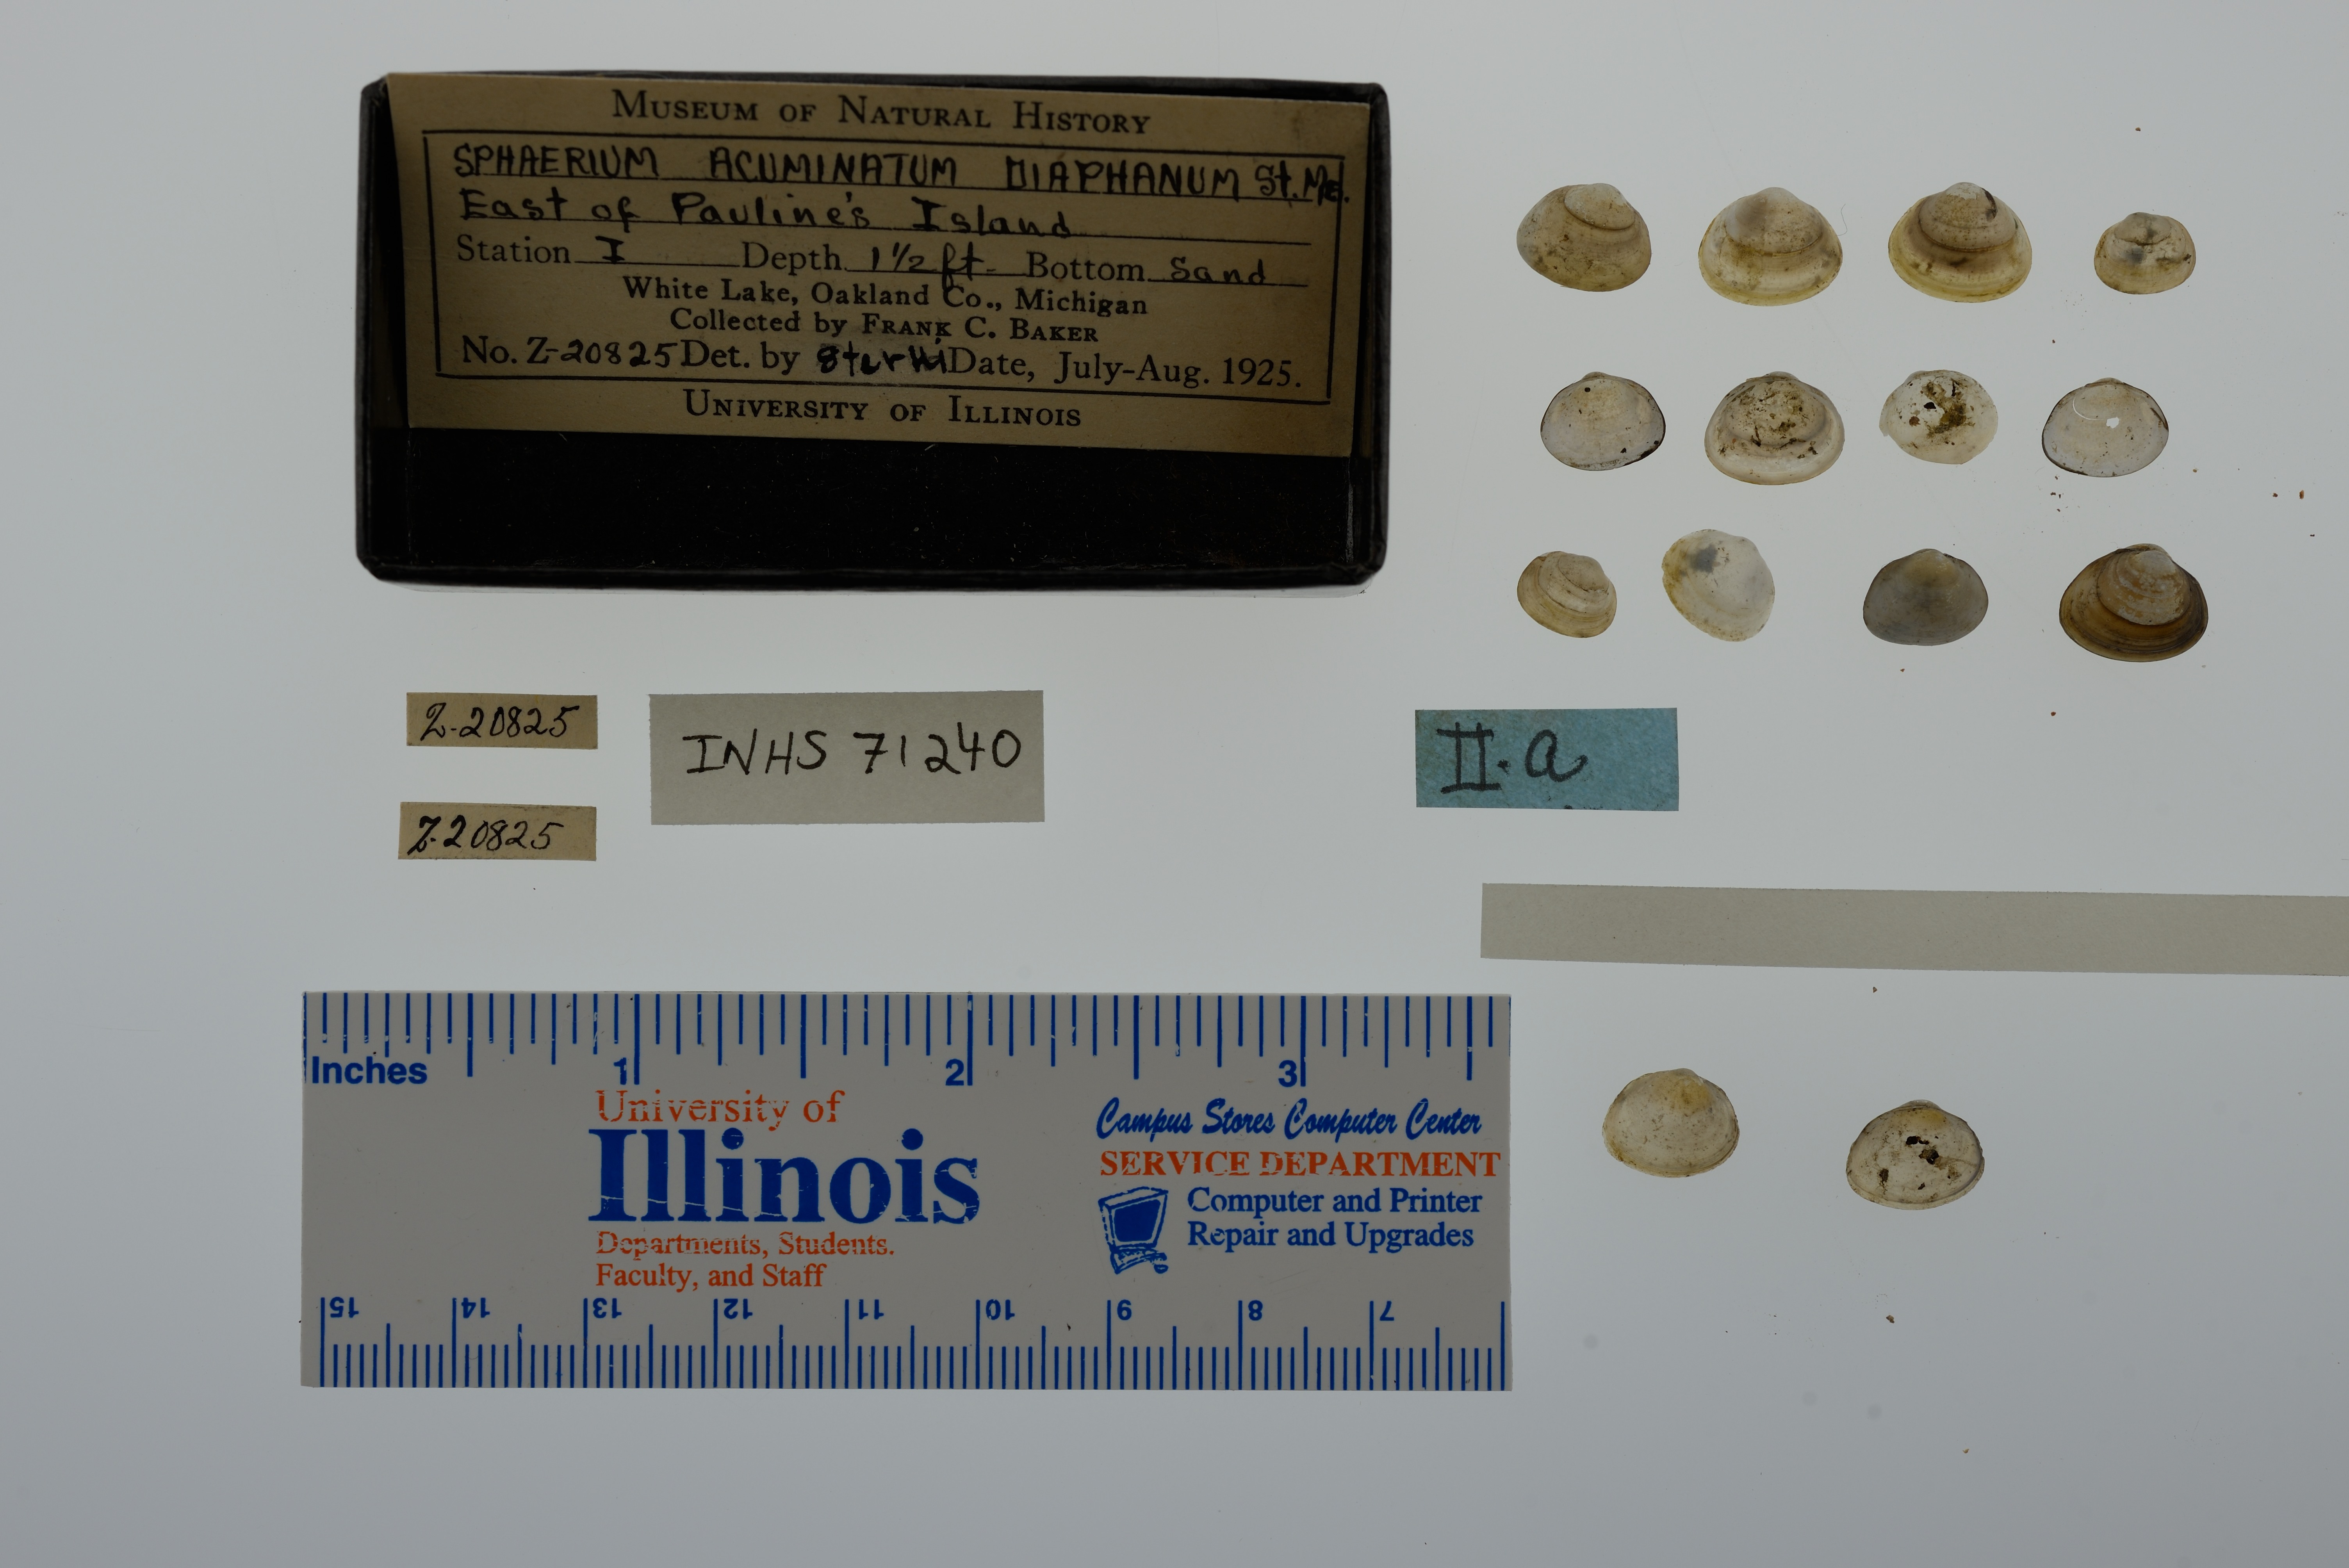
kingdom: Animalia
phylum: Mollusca
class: Bivalvia
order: Sphaeriida
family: Sphaeriidae
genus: Sphaerium
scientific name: Sphaerium striatinum
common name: Striated fingernailclam
